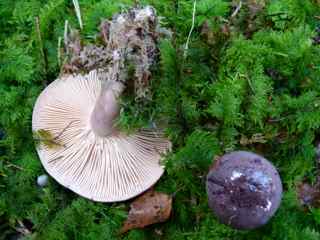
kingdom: Fungi
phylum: Basidiomycota
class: Agaricomycetes
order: Russulales
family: Russulaceae
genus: Lactarius
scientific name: Lactarius trivialis
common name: nordisk mælkehat
